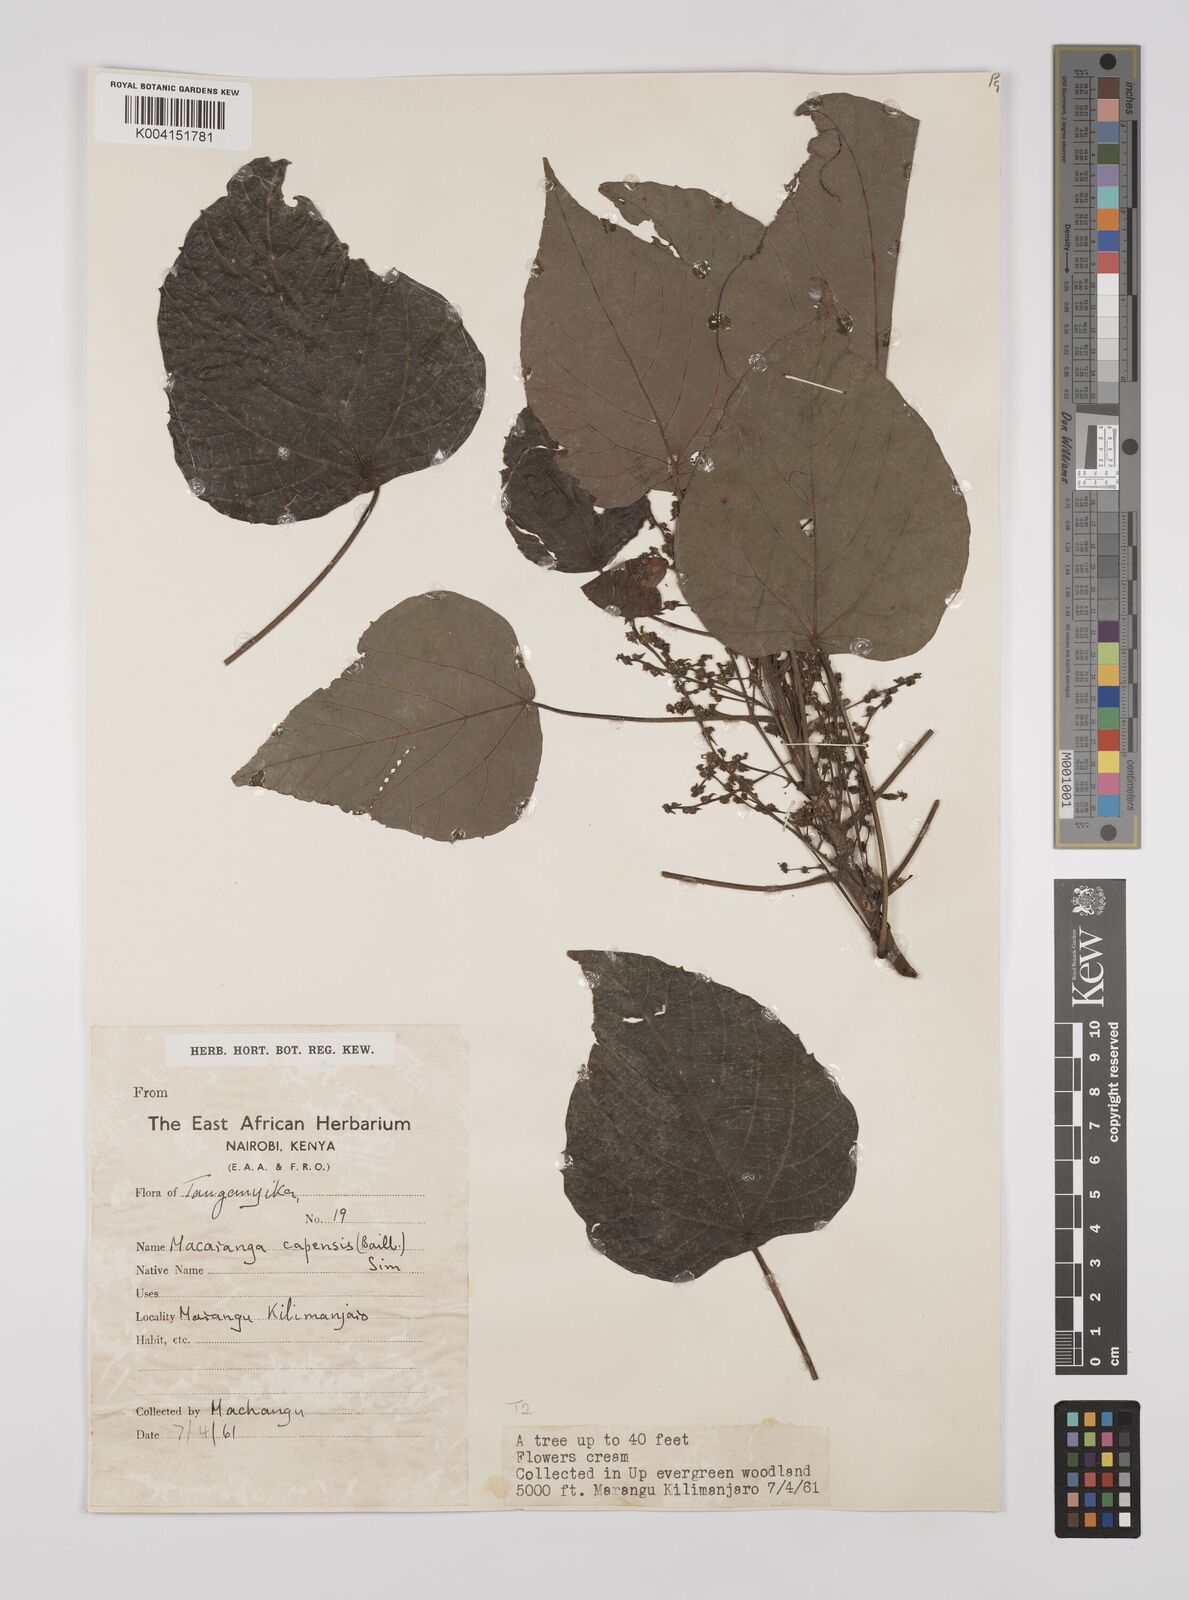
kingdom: Plantae
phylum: Tracheophyta
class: Magnoliopsida
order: Malpighiales
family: Euphorbiaceae
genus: Macaranga
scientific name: Macaranga capensis
